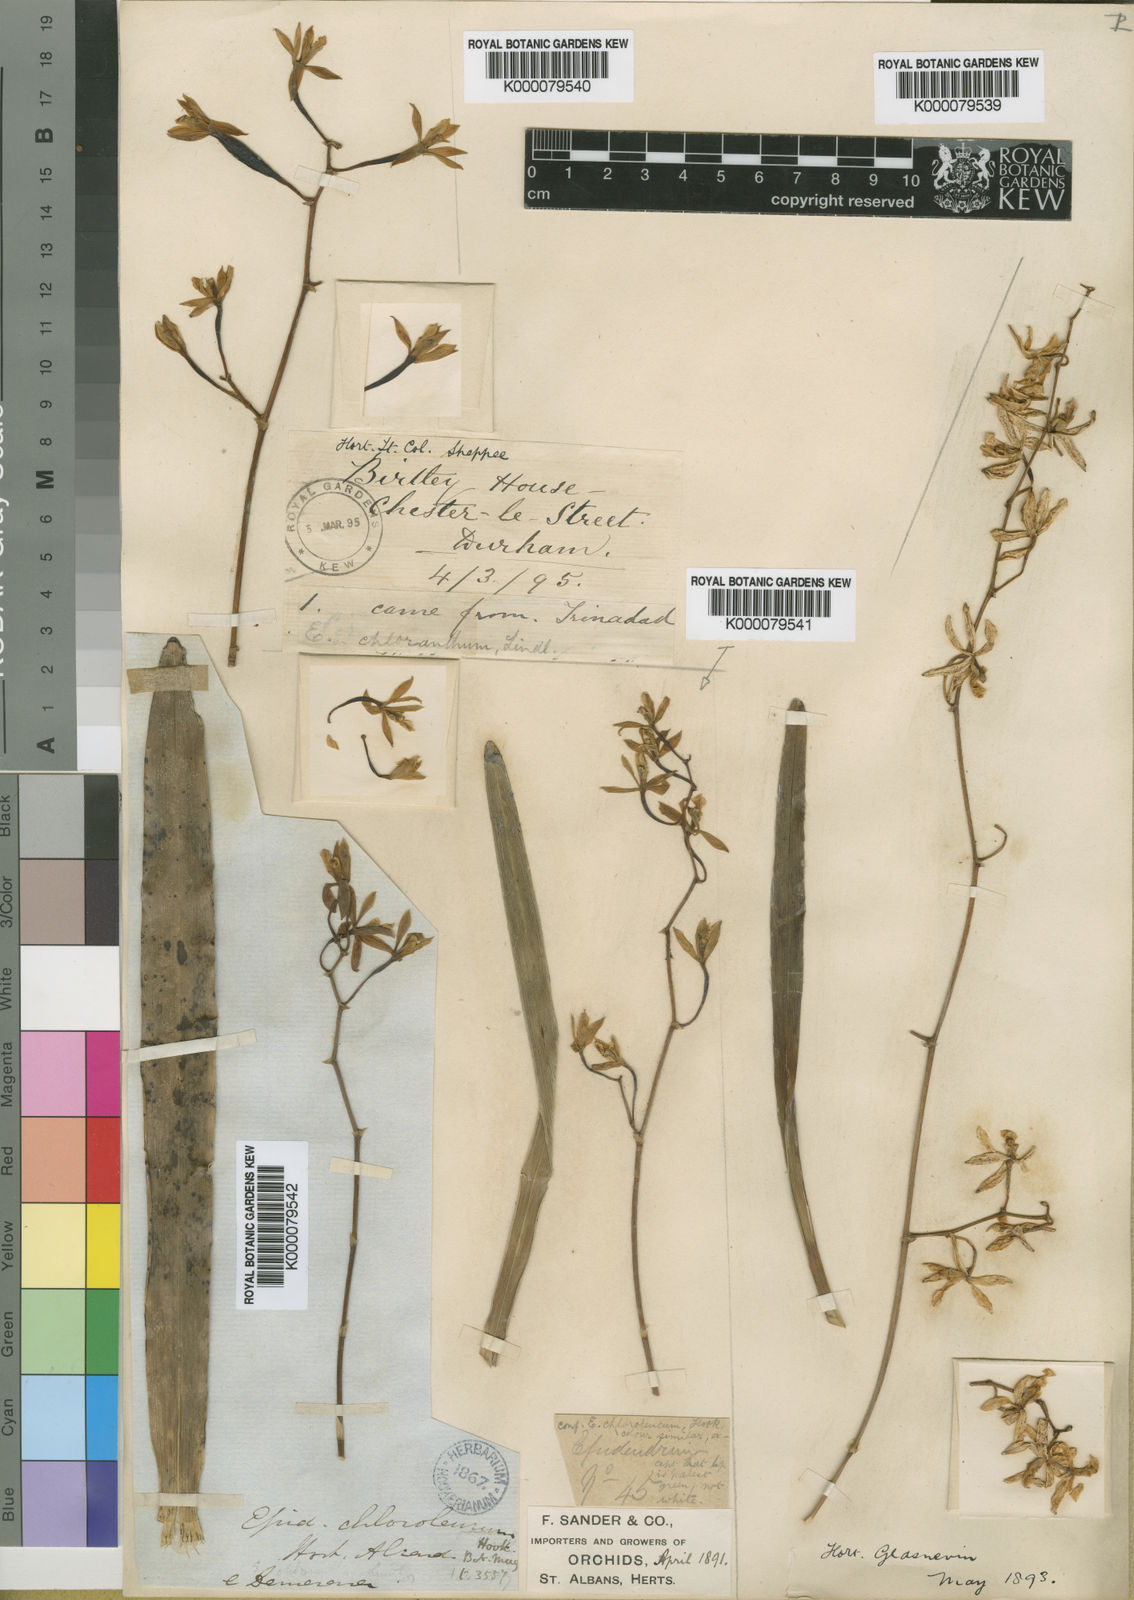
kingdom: Plantae
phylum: Tracheophyta
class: Liliopsida
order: Asparagales
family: Orchidaceae
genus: Encyclia
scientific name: Encyclia
